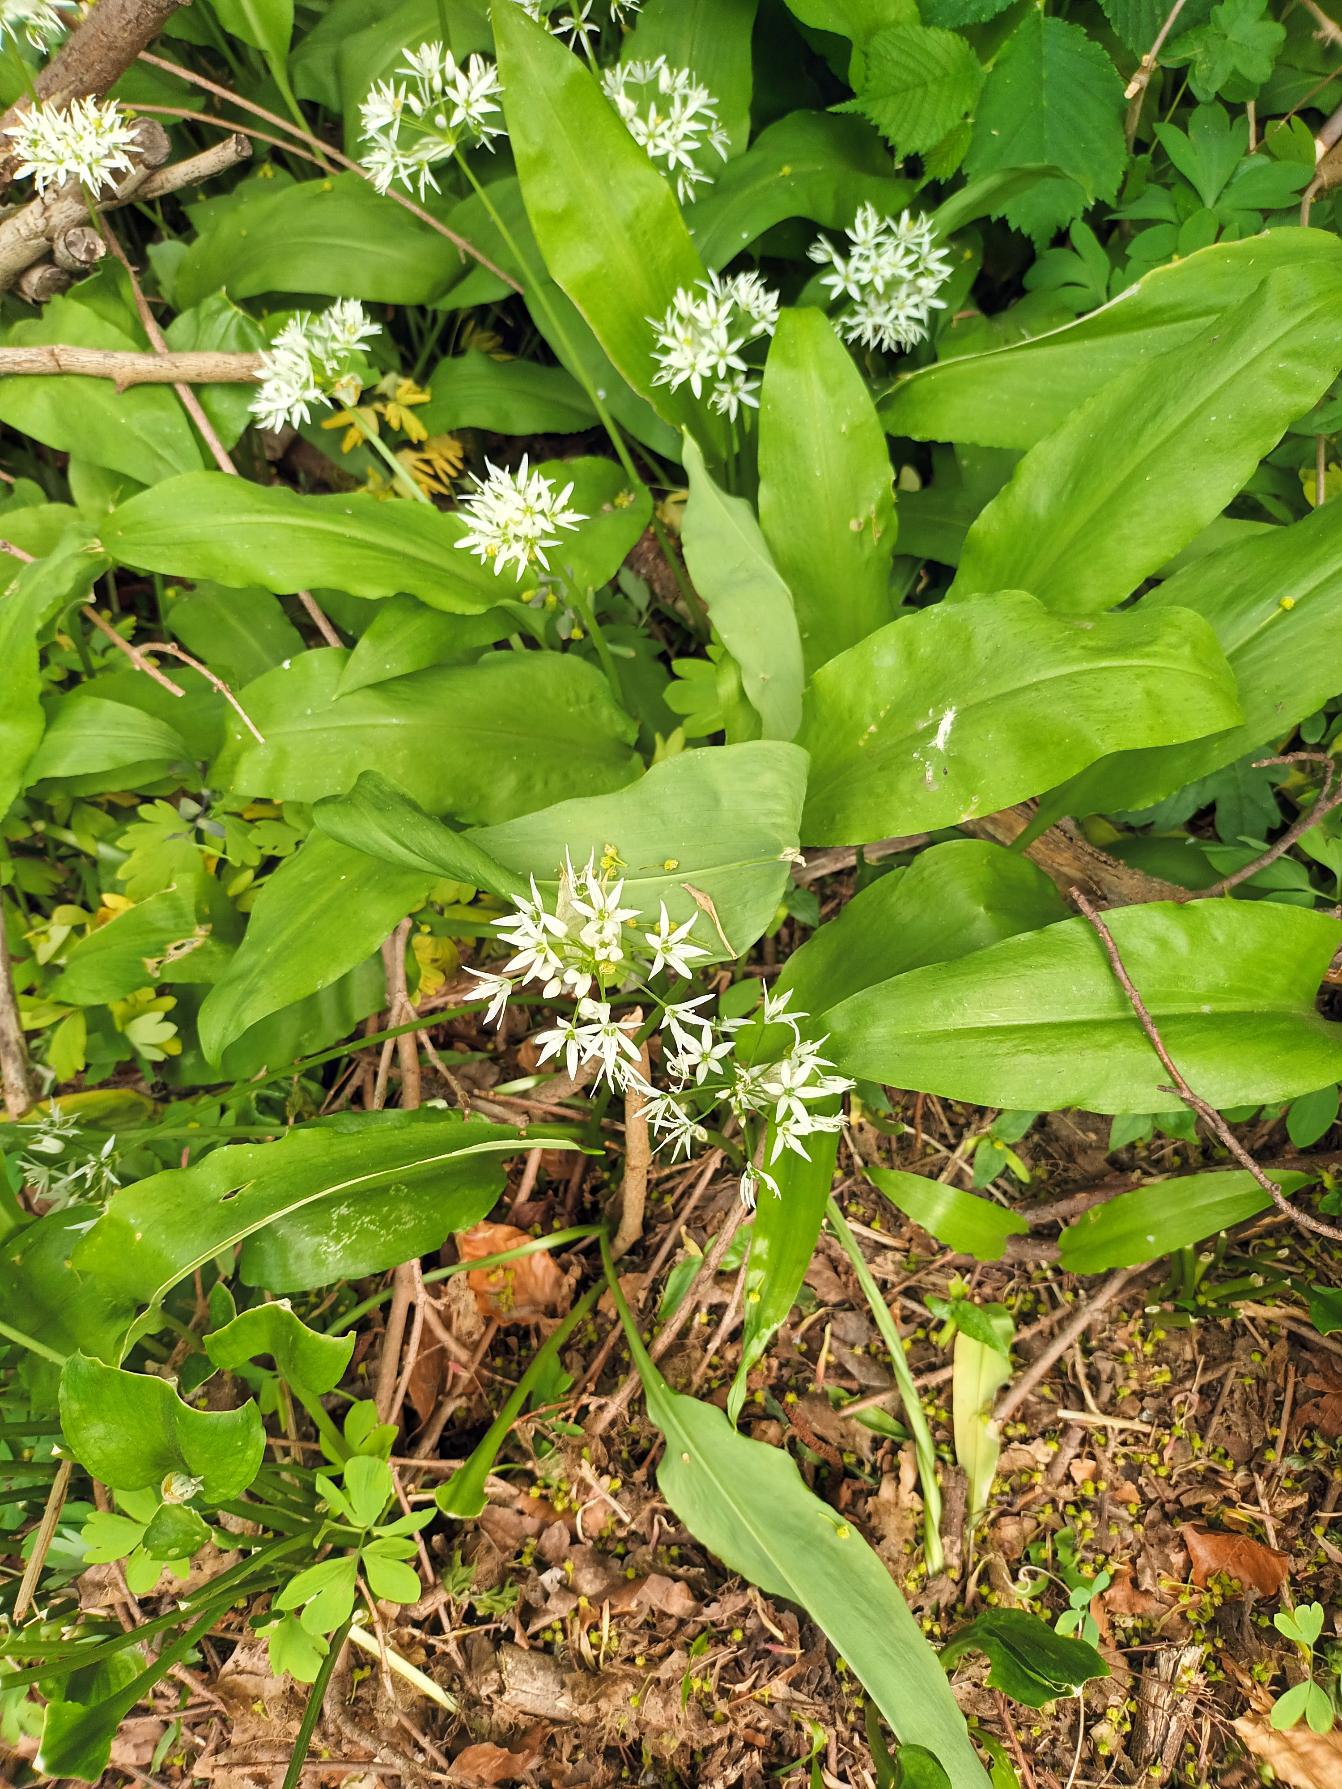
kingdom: Plantae
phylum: Tracheophyta
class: Liliopsida
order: Asparagales
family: Amaryllidaceae
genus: Allium
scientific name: Allium ursinum
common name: Rams-løg
